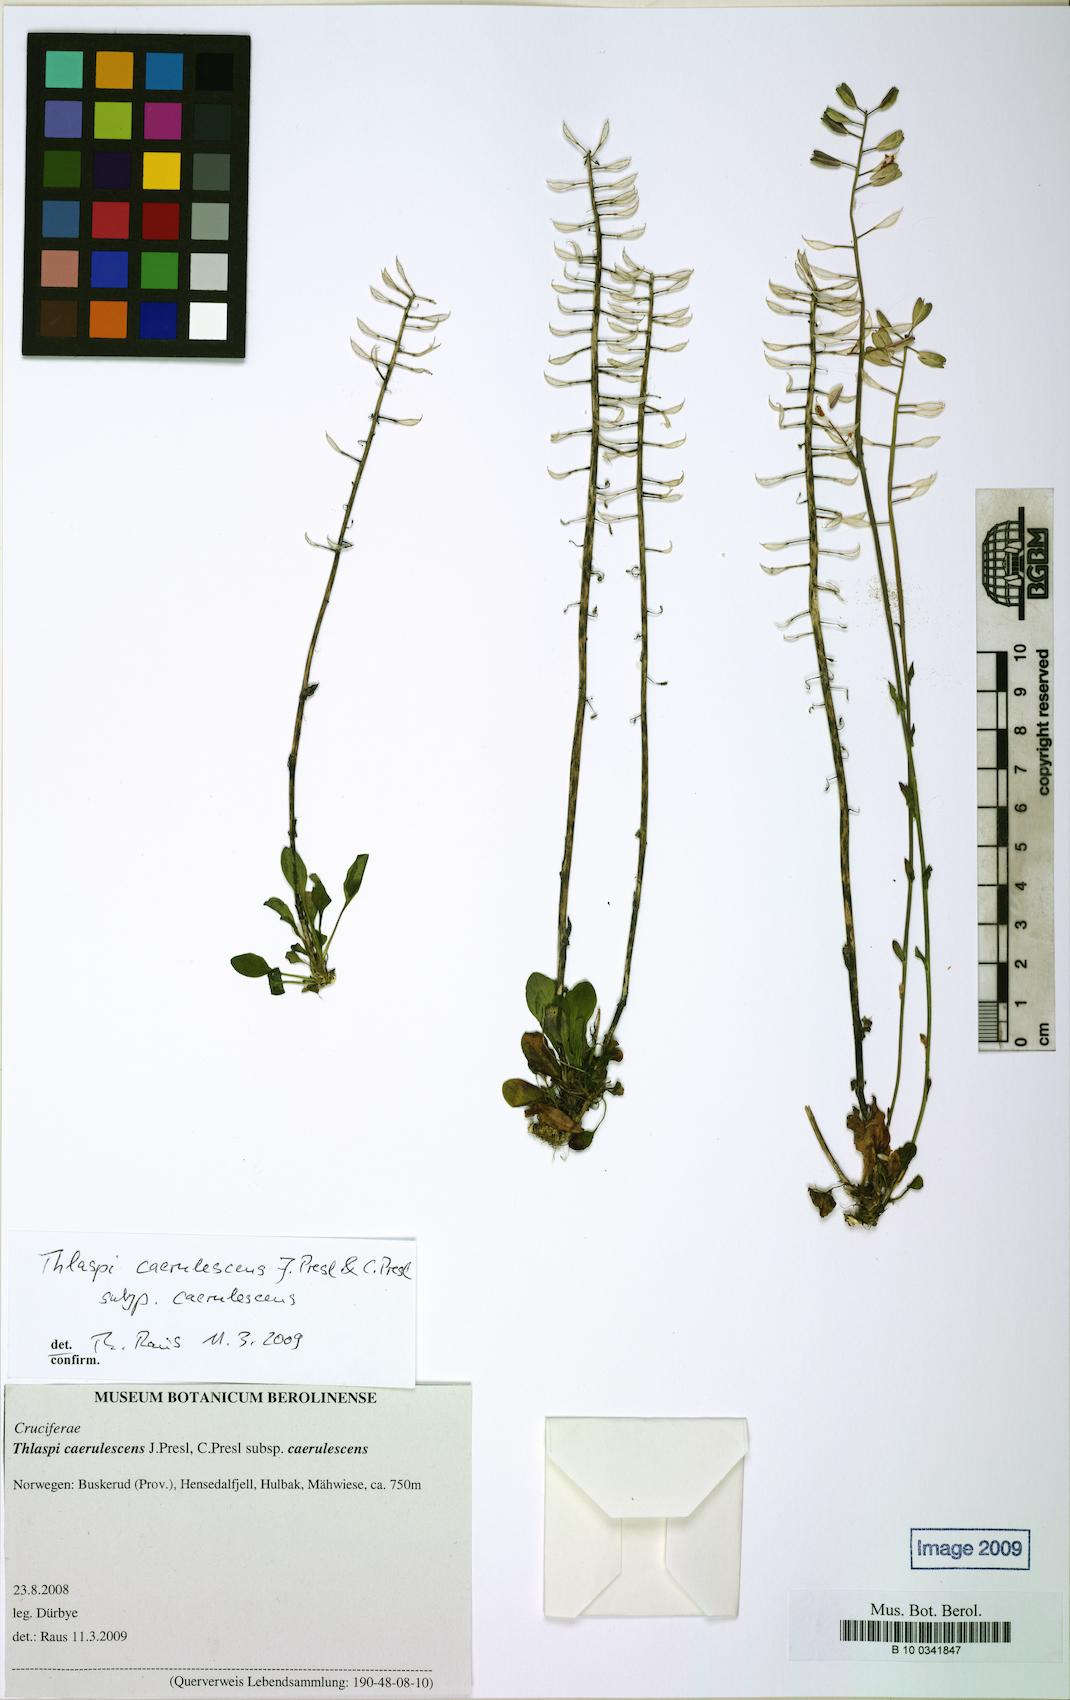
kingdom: Plantae
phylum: Tracheophyta
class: Magnoliopsida
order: Brassicales
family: Brassicaceae
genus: Noccaea
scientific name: Noccaea caerulescens
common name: Alpine pennycress
